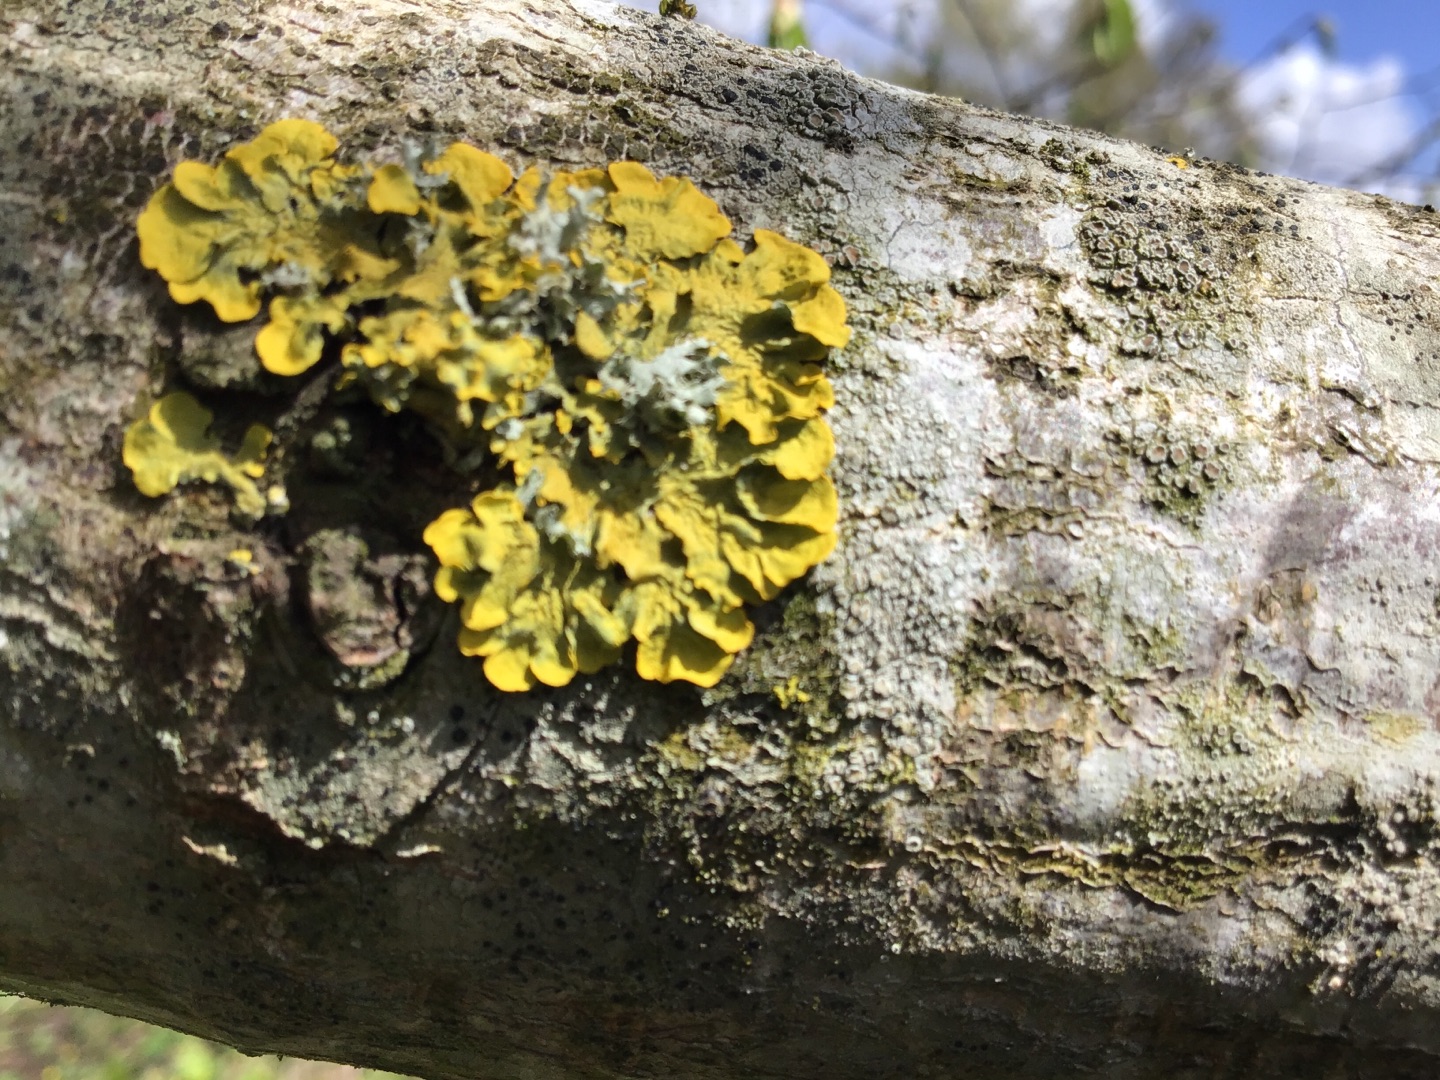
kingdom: Fungi
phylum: Ascomycota
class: Lecanoromycetes
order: Teloschistales
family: Teloschistaceae
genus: Xanthoria
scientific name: Xanthoria parietina
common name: Almindelig væggelav
